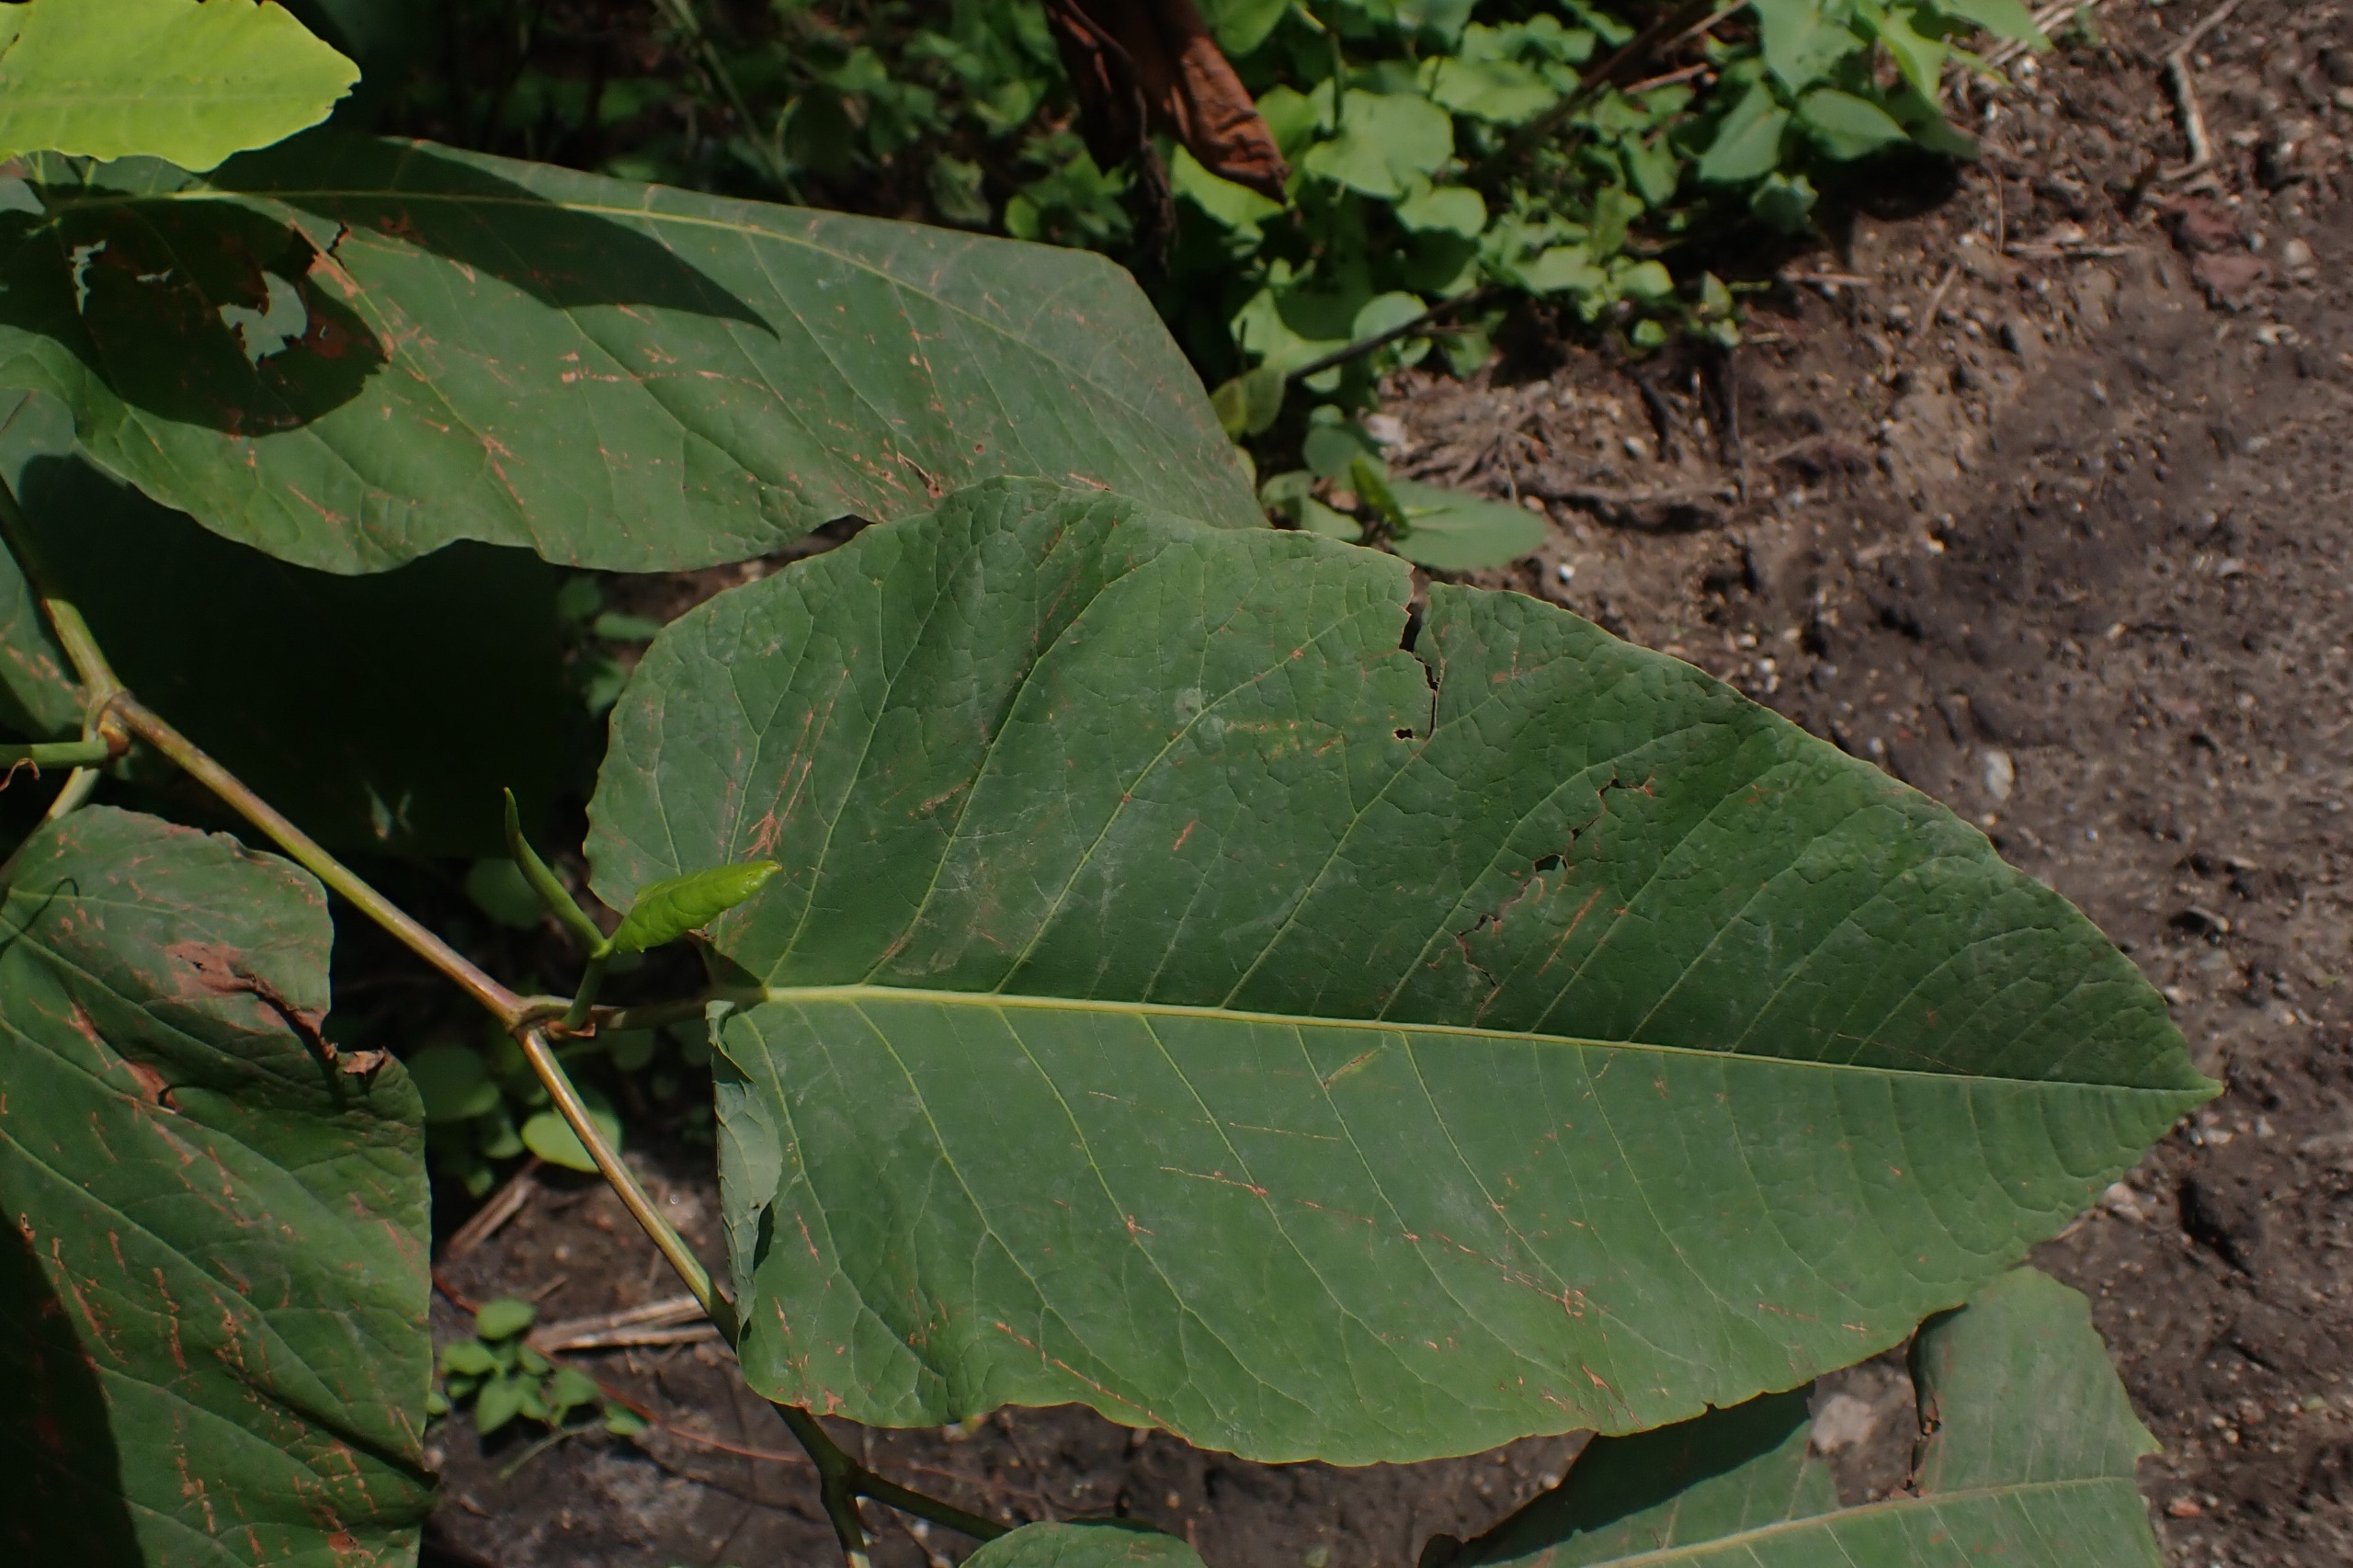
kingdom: Plantae
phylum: Tracheophyta
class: Magnoliopsida
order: Caryophyllales
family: Polygonaceae
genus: Reynoutria
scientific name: Reynoutria sachalinensis
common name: Kæmpe-pileurt
